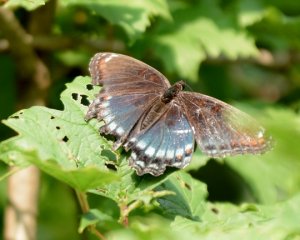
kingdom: Animalia
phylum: Arthropoda
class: Insecta
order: Lepidoptera
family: Nymphalidae
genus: Limenitis
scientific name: Limenitis astyanax
